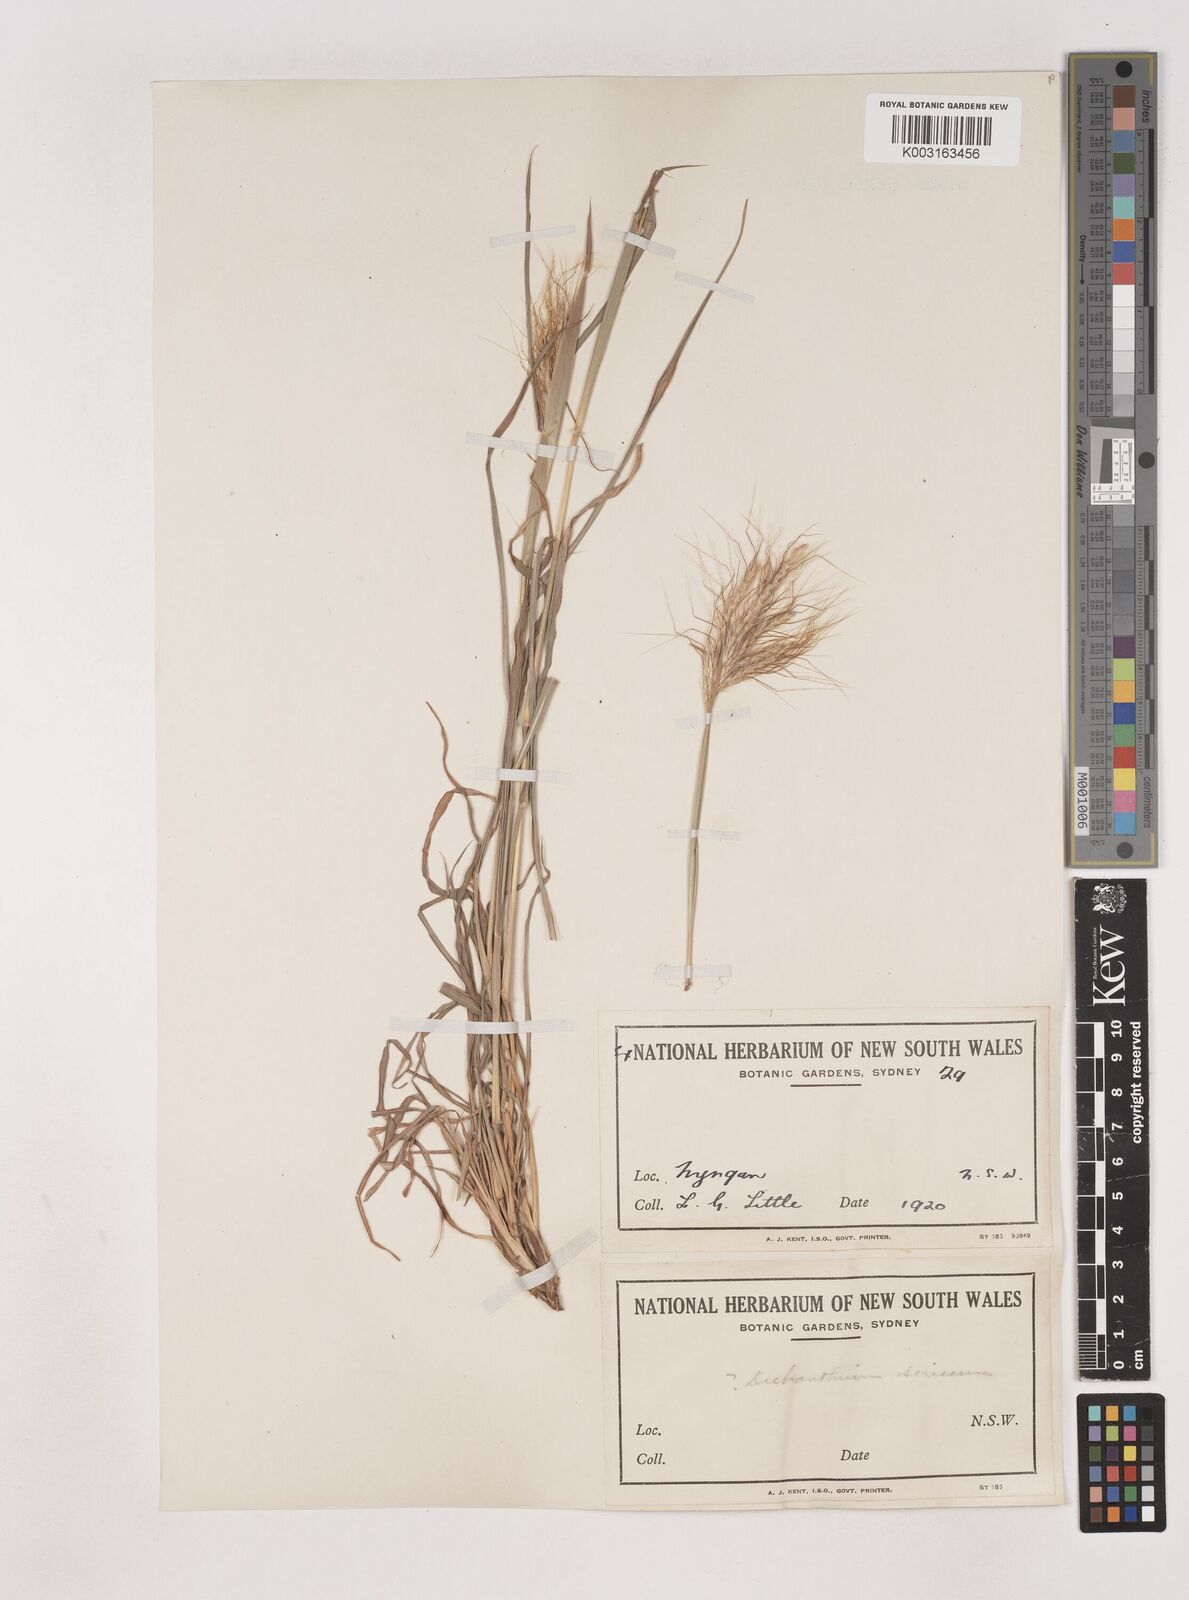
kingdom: Plantae
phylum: Tracheophyta
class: Liliopsida
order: Poales
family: Poaceae
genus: Dichanthium
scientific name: Dichanthium sericeum
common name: Silky bluestem
